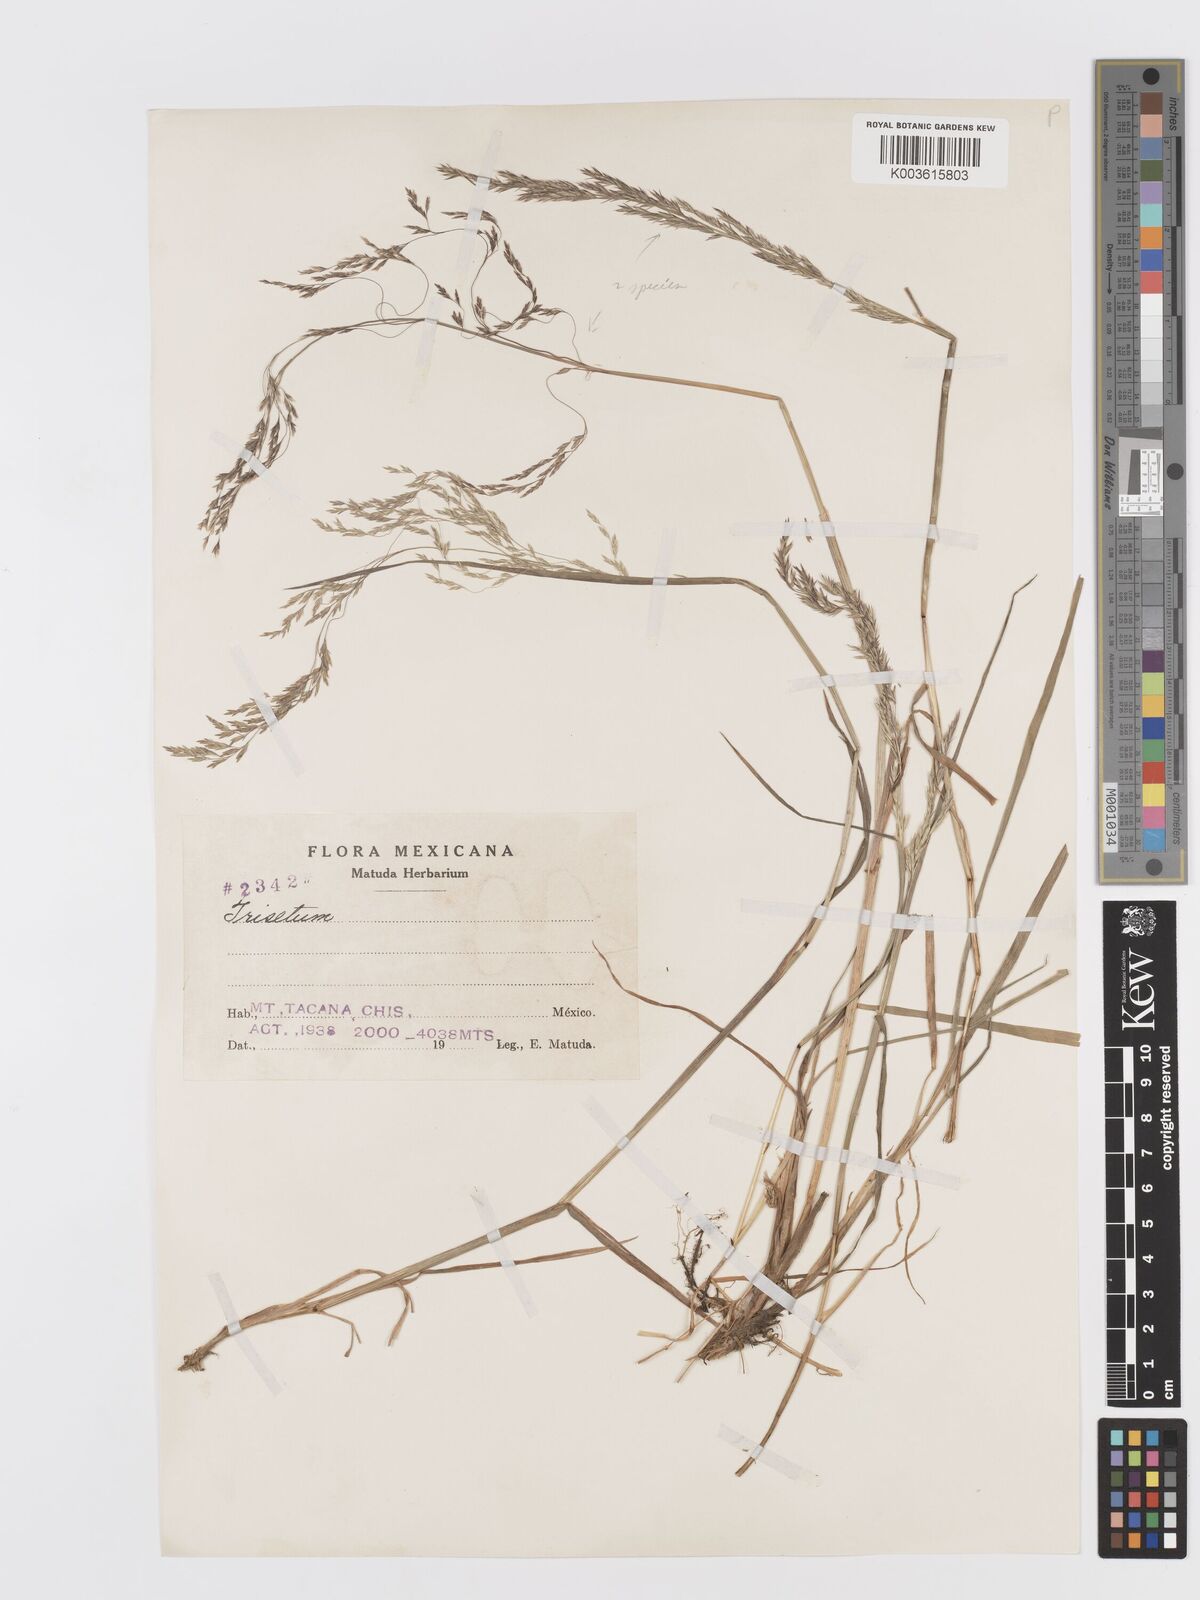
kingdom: Plantae
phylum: Tracheophyta
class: Liliopsida
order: Poales
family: Poaceae
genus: Peyritschia
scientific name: Peyritschia graphephoroides
